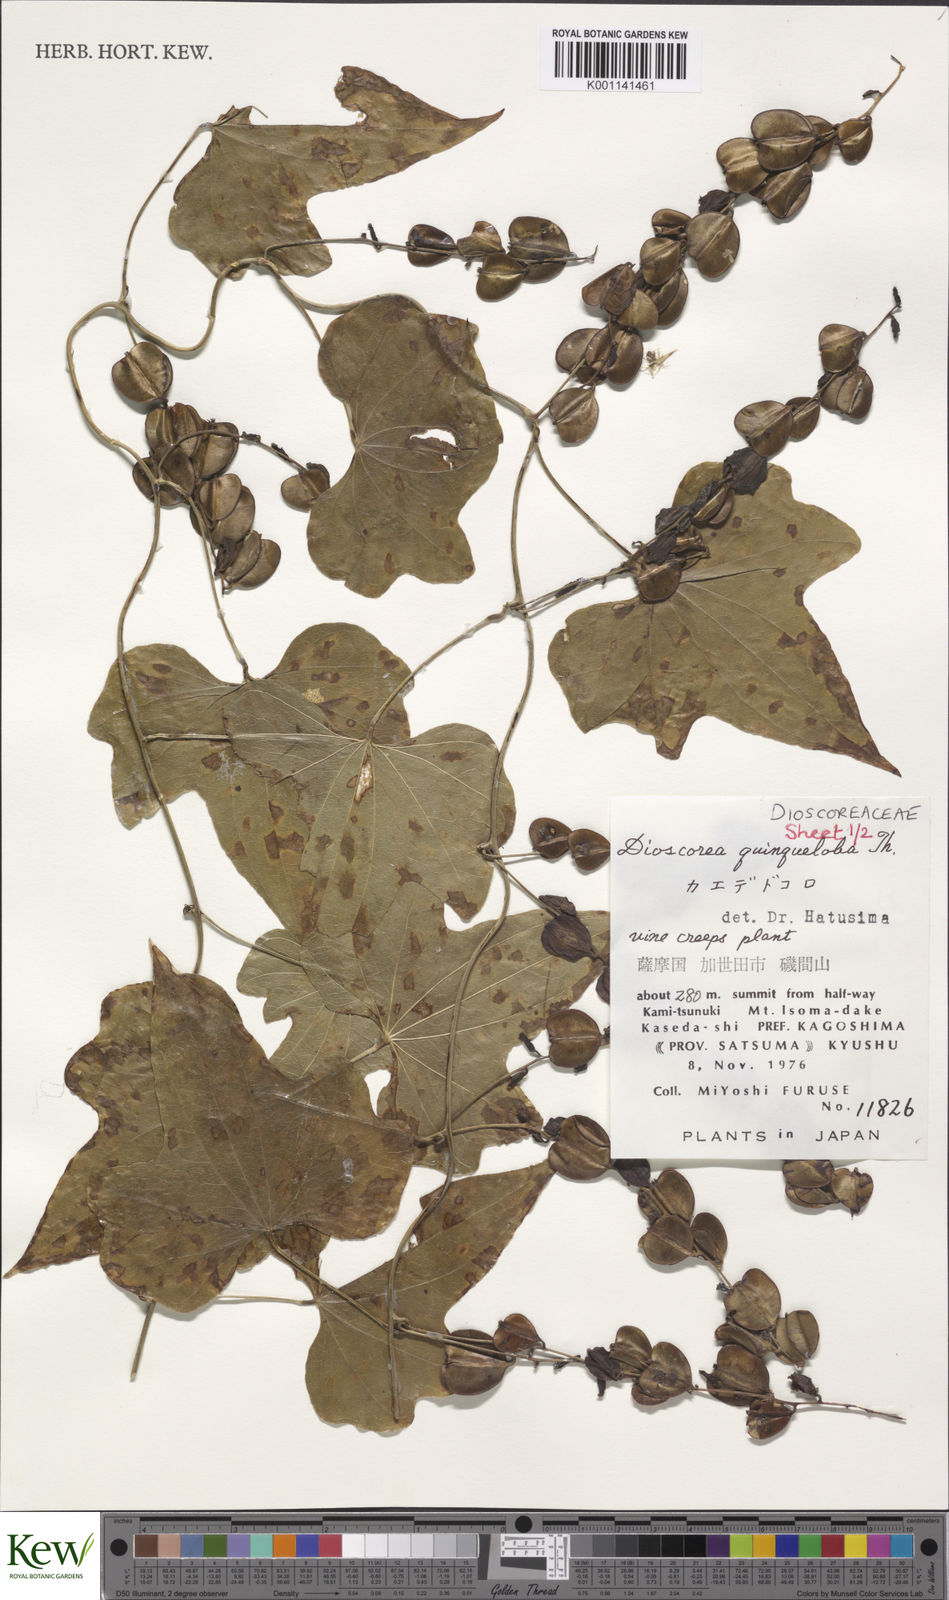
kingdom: Plantae
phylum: Tracheophyta
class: Liliopsida
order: Dioscoreales
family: Dioscoreaceae
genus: Dioscorea
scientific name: Dioscorea quinquelobata
